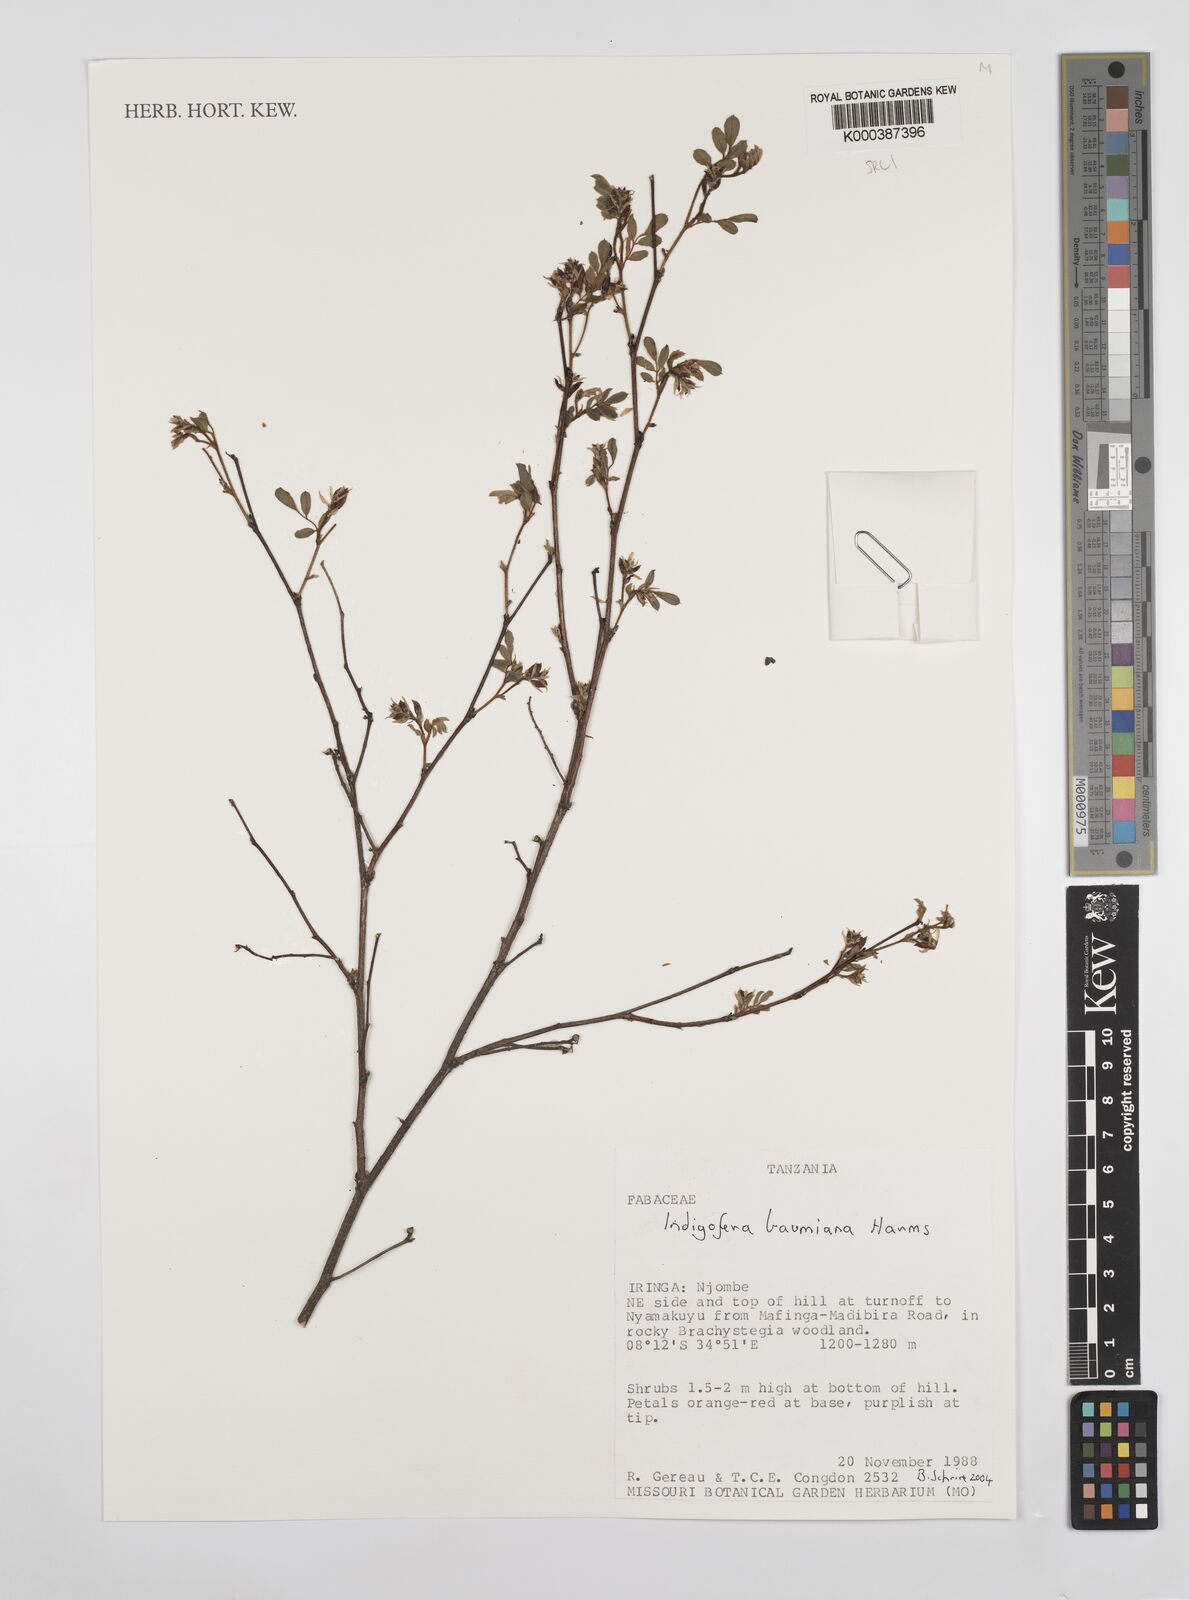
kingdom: Plantae
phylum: Tracheophyta
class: Magnoliopsida
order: Fabales
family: Fabaceae
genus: Indigofera
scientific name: Indigofera baumiana
